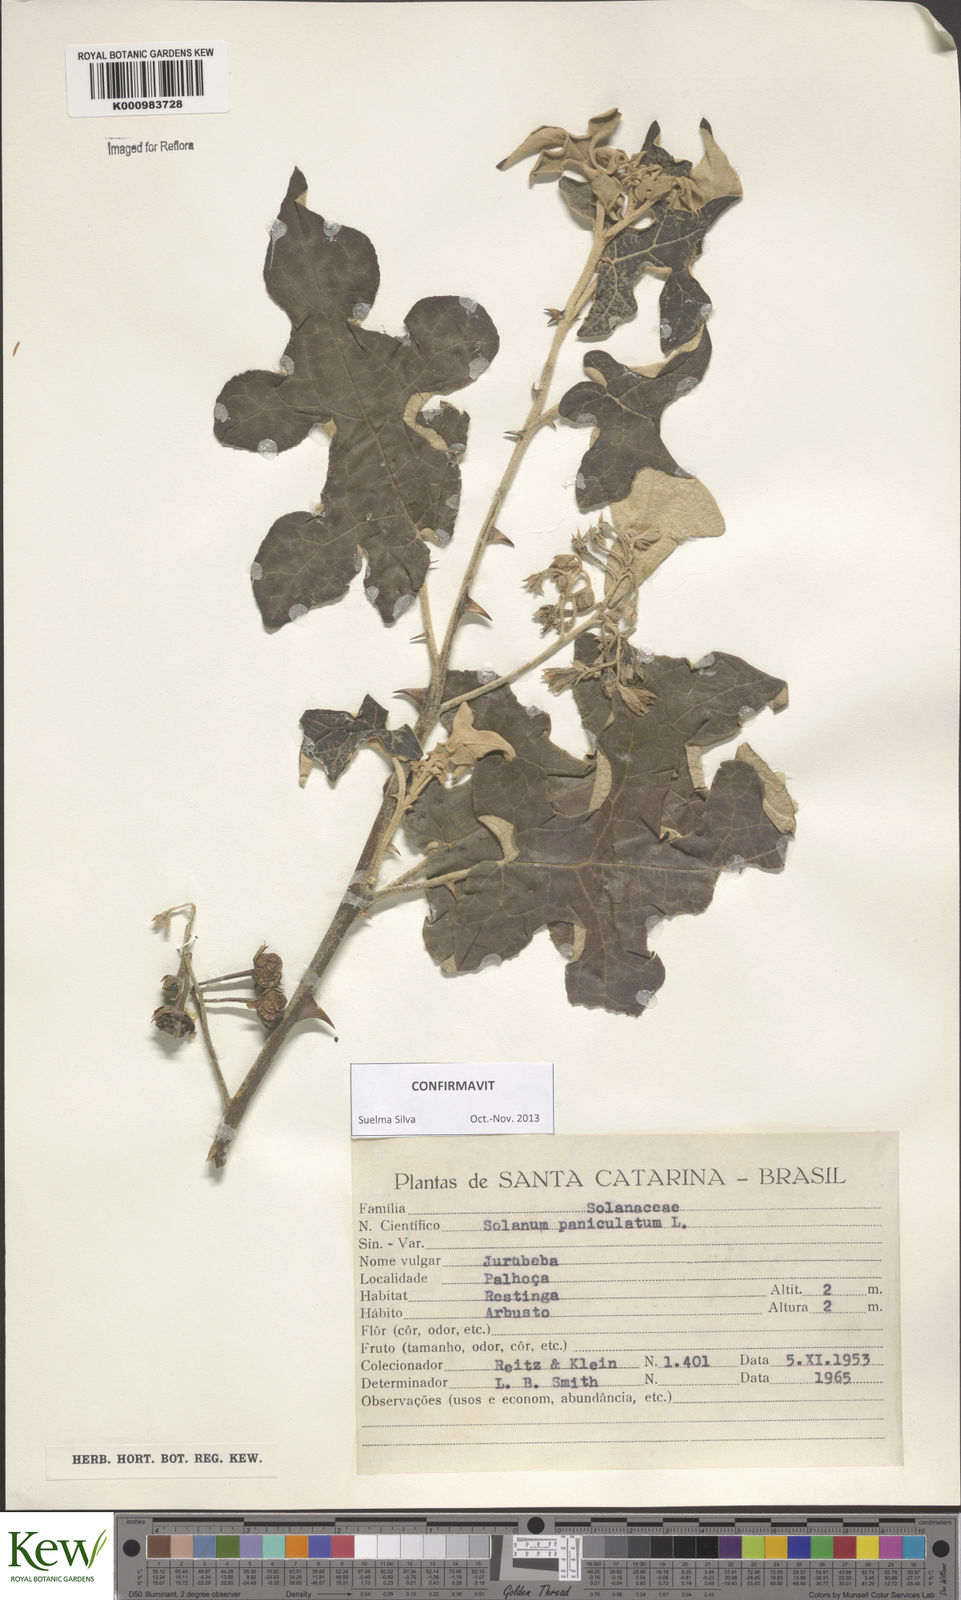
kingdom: Plantae
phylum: Tracheophyta
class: Magnoliopsida
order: Solanales
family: Solanaceae
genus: Solanum
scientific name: Solanum paniculatum
